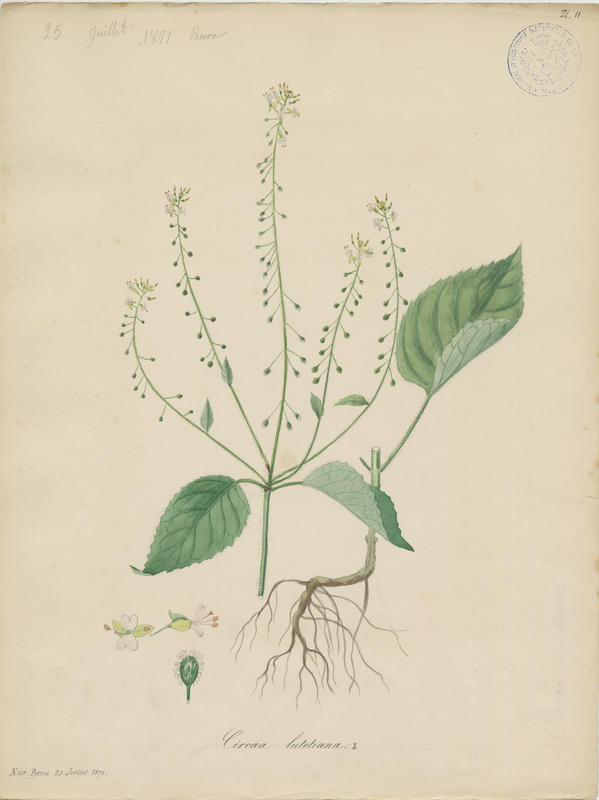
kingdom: Plantae
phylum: Tracheophyta
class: Magnoliopsida
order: Myrtales
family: Onagraceae
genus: Circaea
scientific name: Circaea lutetiana
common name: Enchanter's-nightshade
